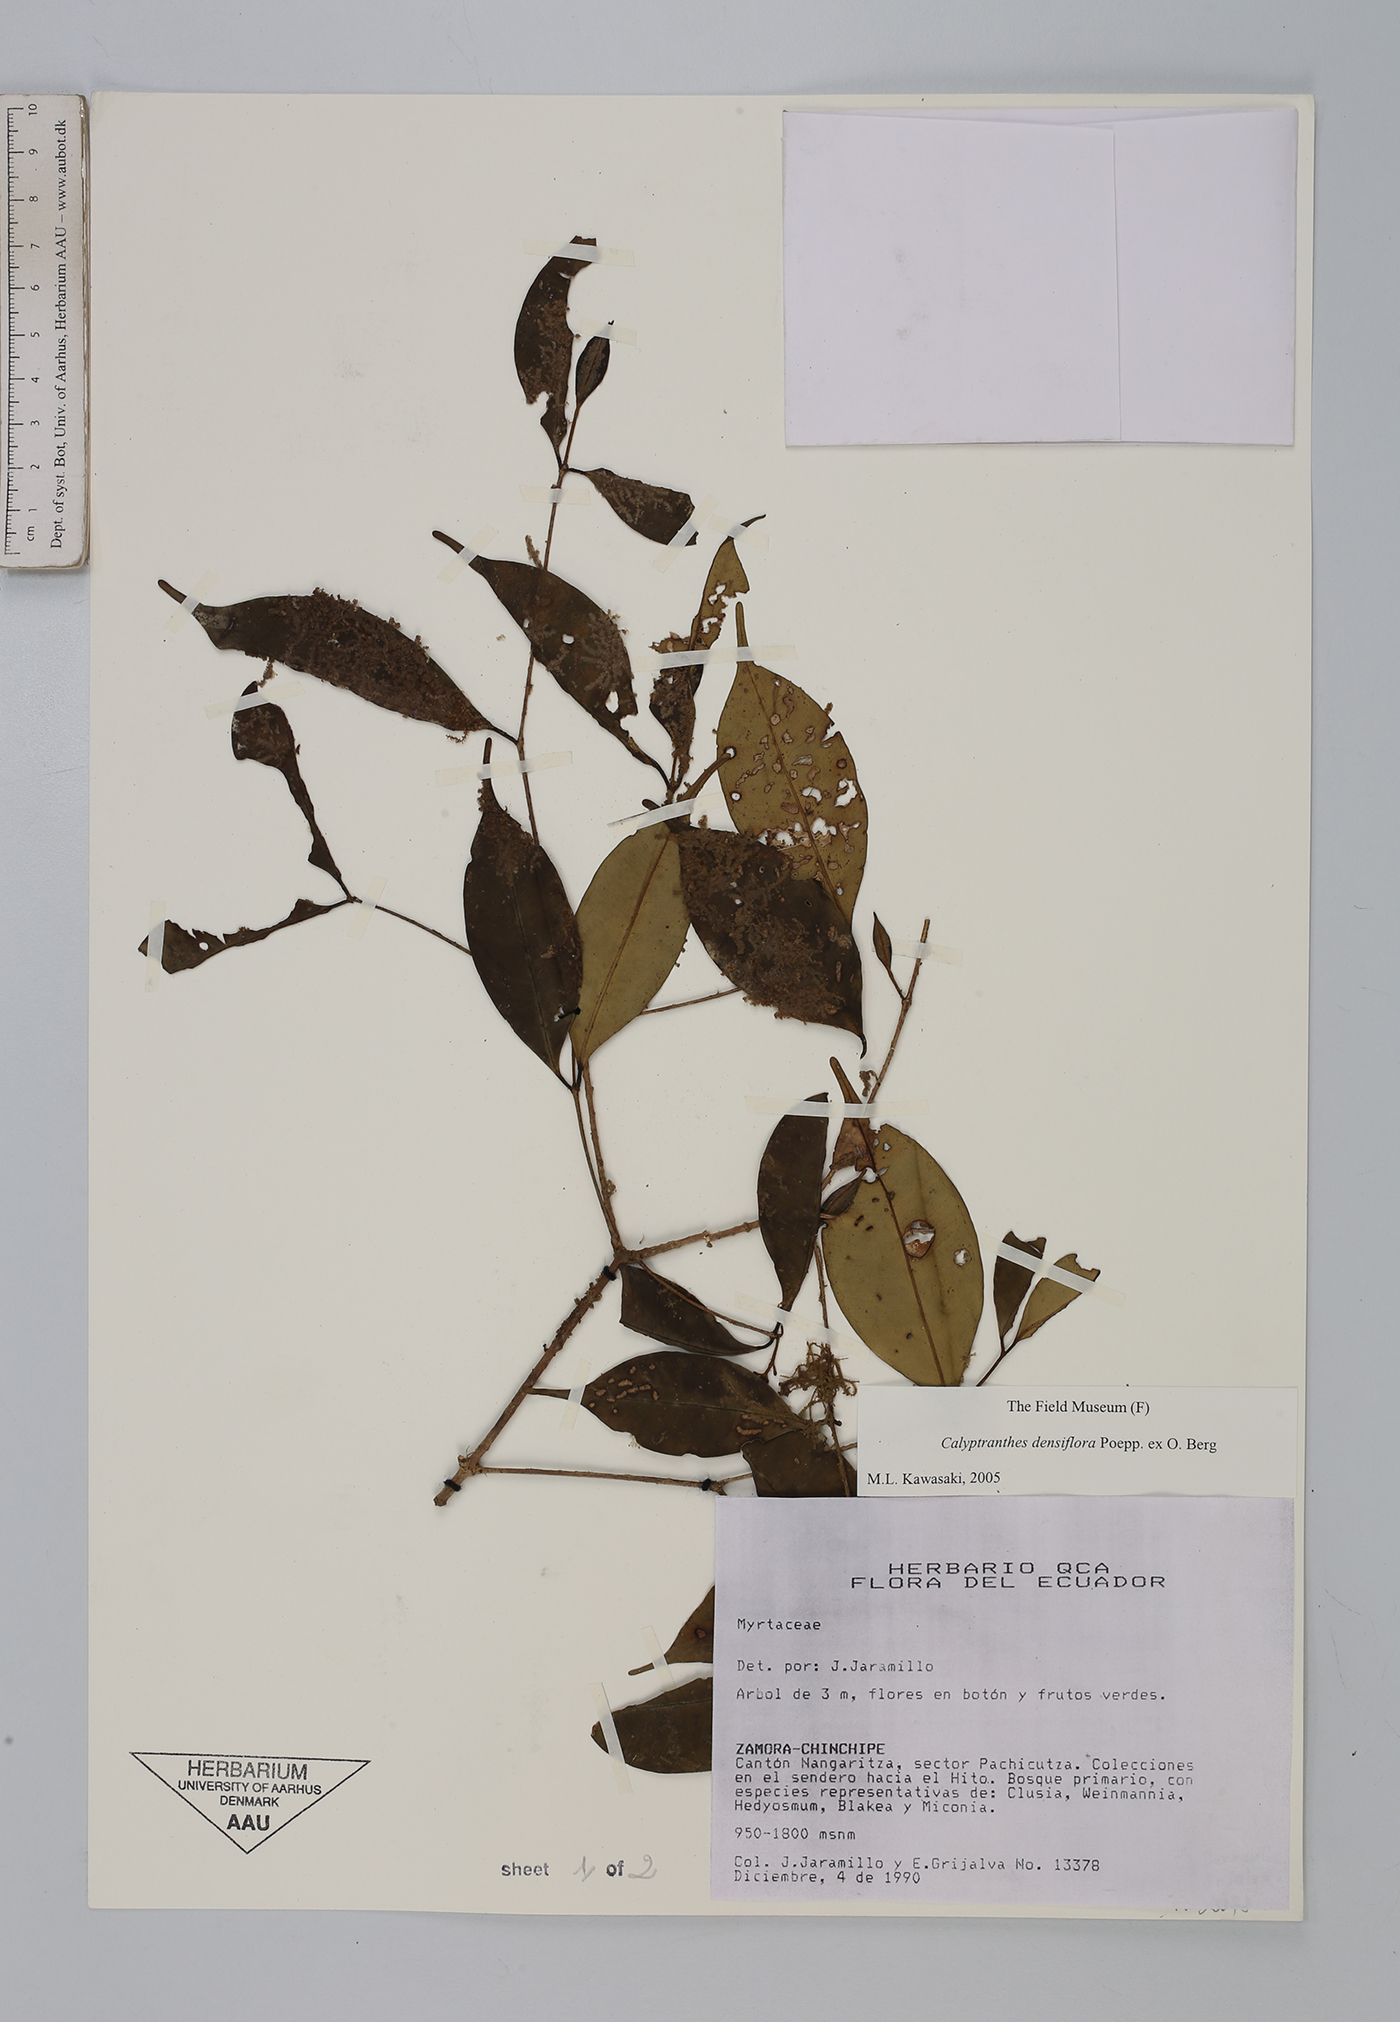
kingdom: Plantae
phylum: Tracheophyta
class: Magnoliopsida
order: Myrtales
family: Myrtaceae
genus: Myrcia
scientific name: Myrcia densiflora
